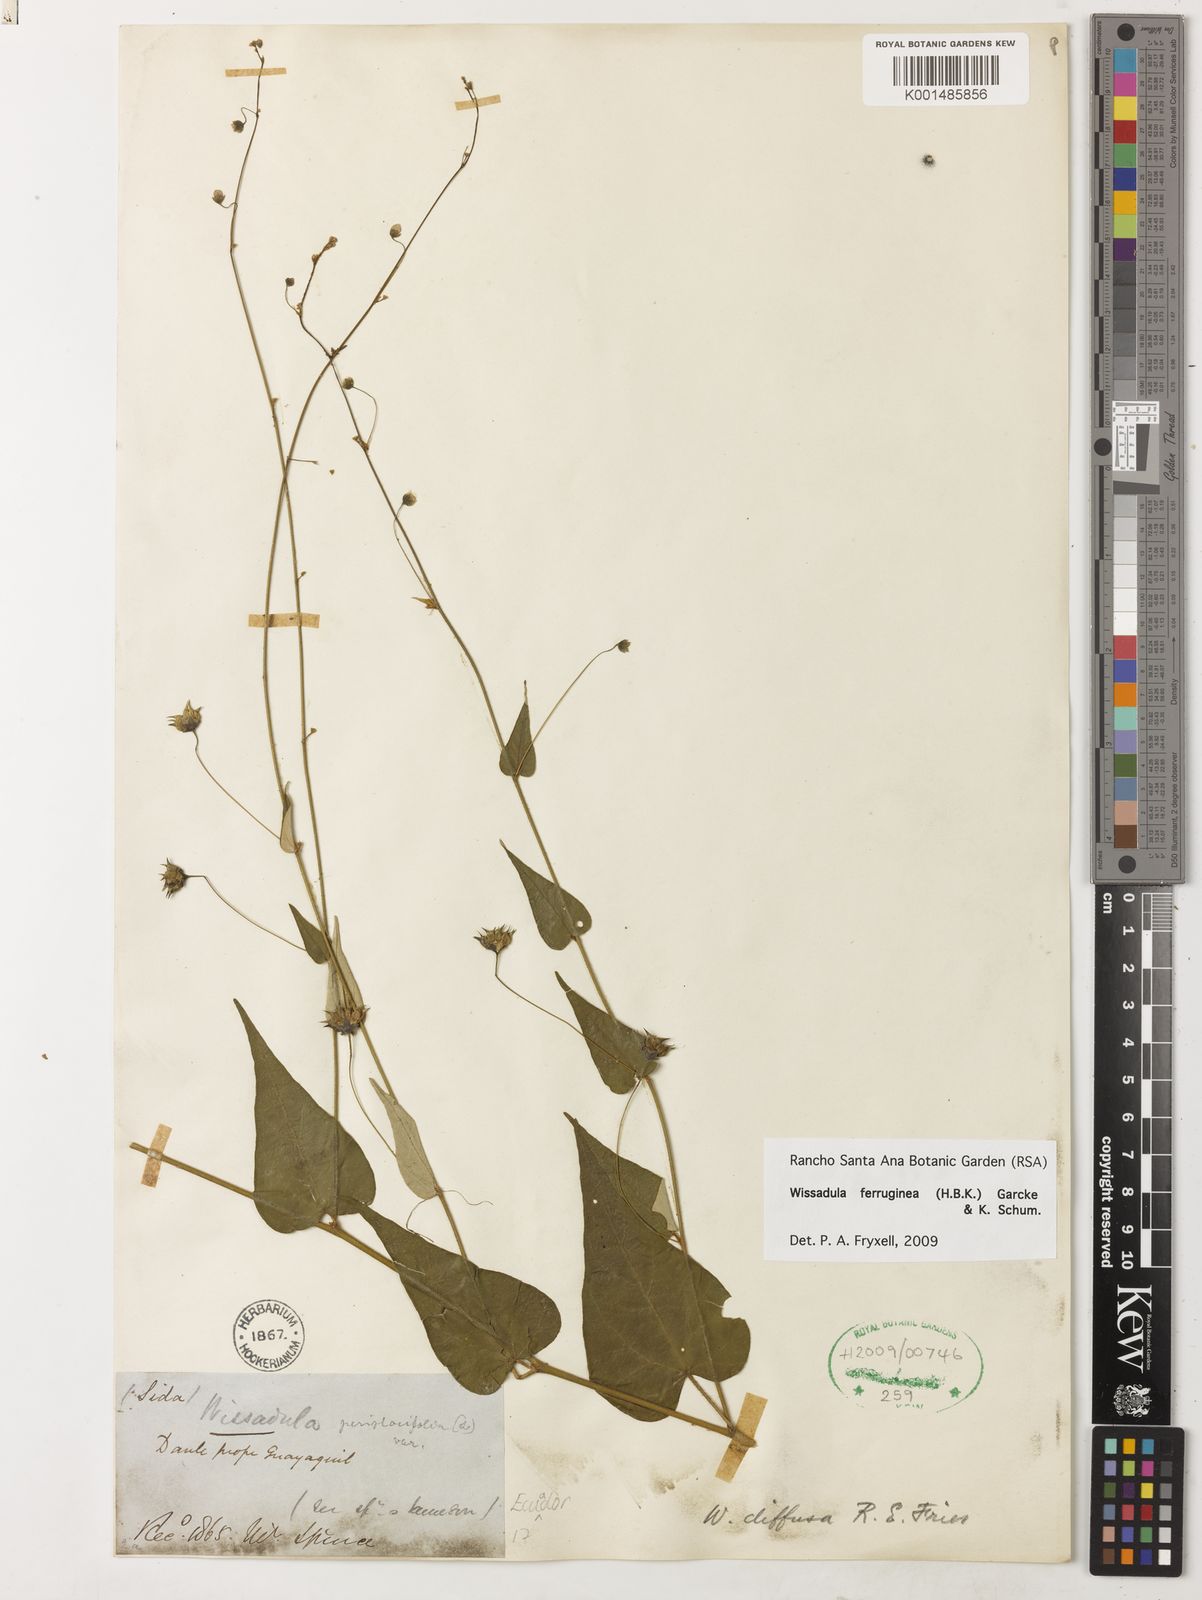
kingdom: Plantae
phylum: Tracheophyta
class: Magnoliopsida
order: Malvales
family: Malvaceae
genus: Wissadula
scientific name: Wissadula excelsior
